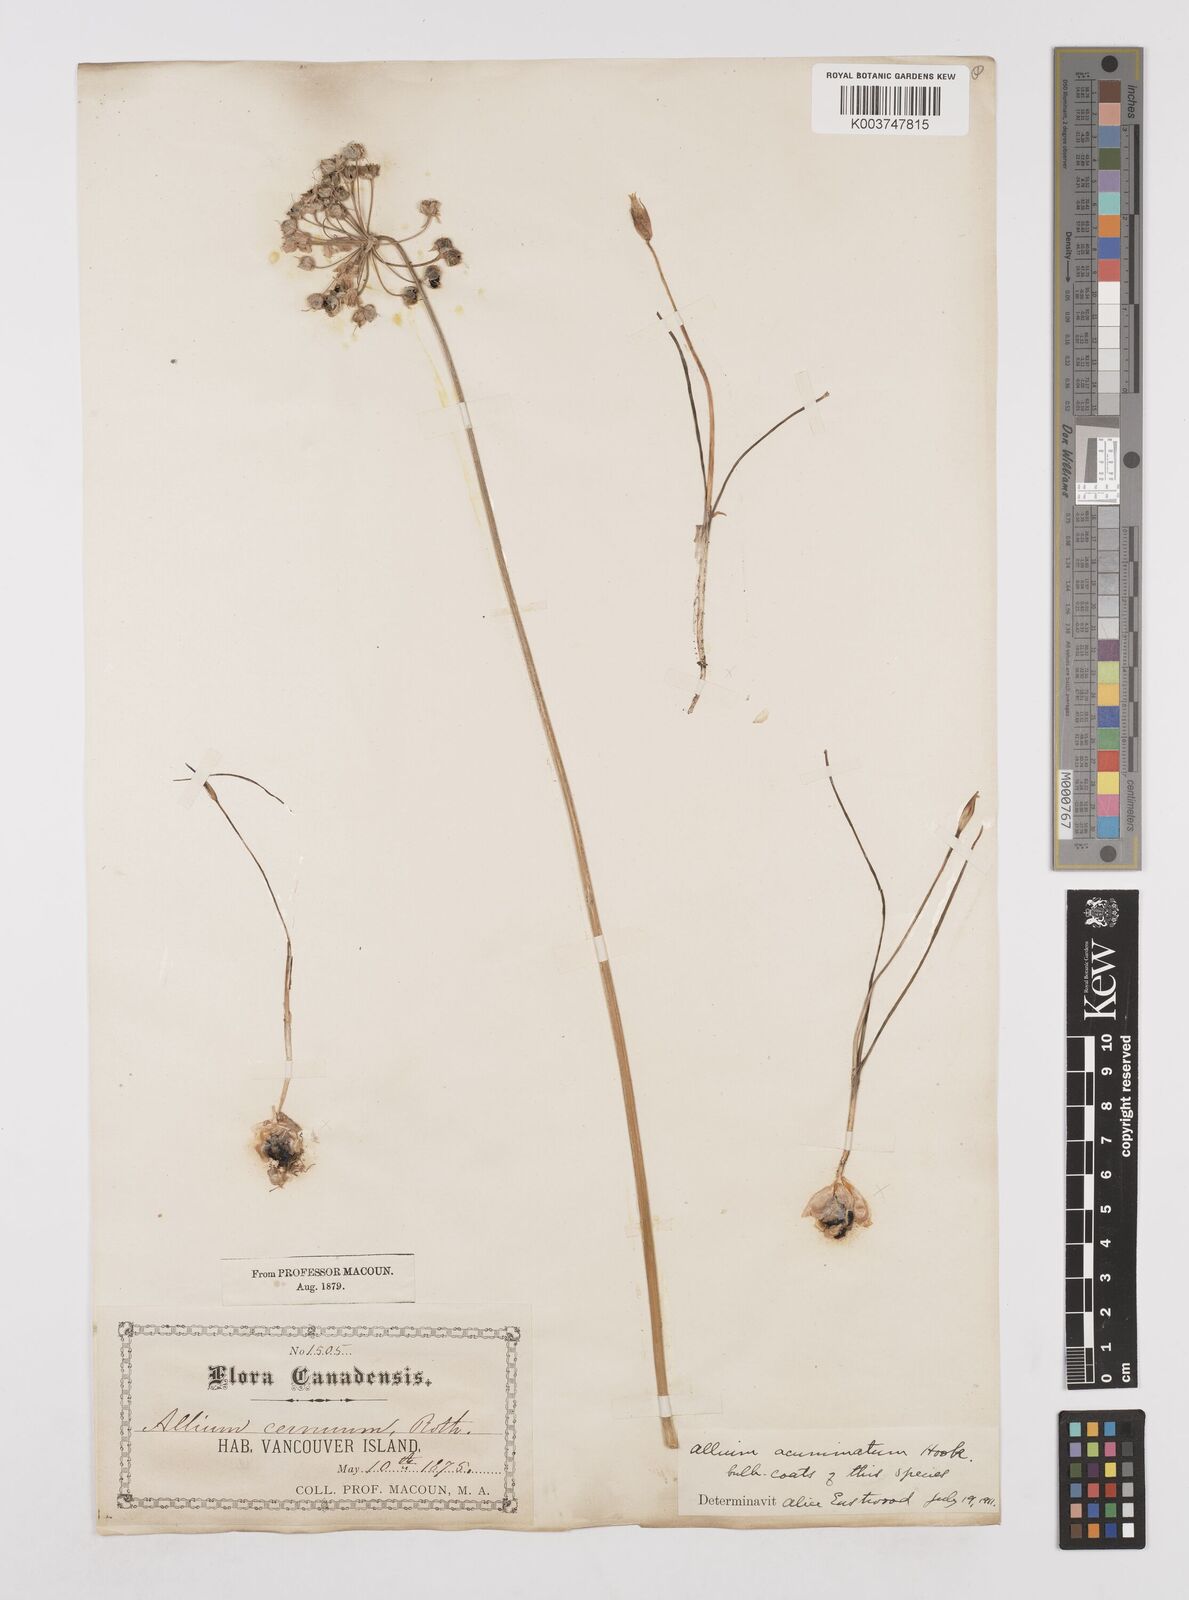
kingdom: Plantae
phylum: Tracheophyta
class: Liliopsida
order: Asparagales
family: Amaryllidaceae
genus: Allium
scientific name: Allium cernuum
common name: Nodding onion
